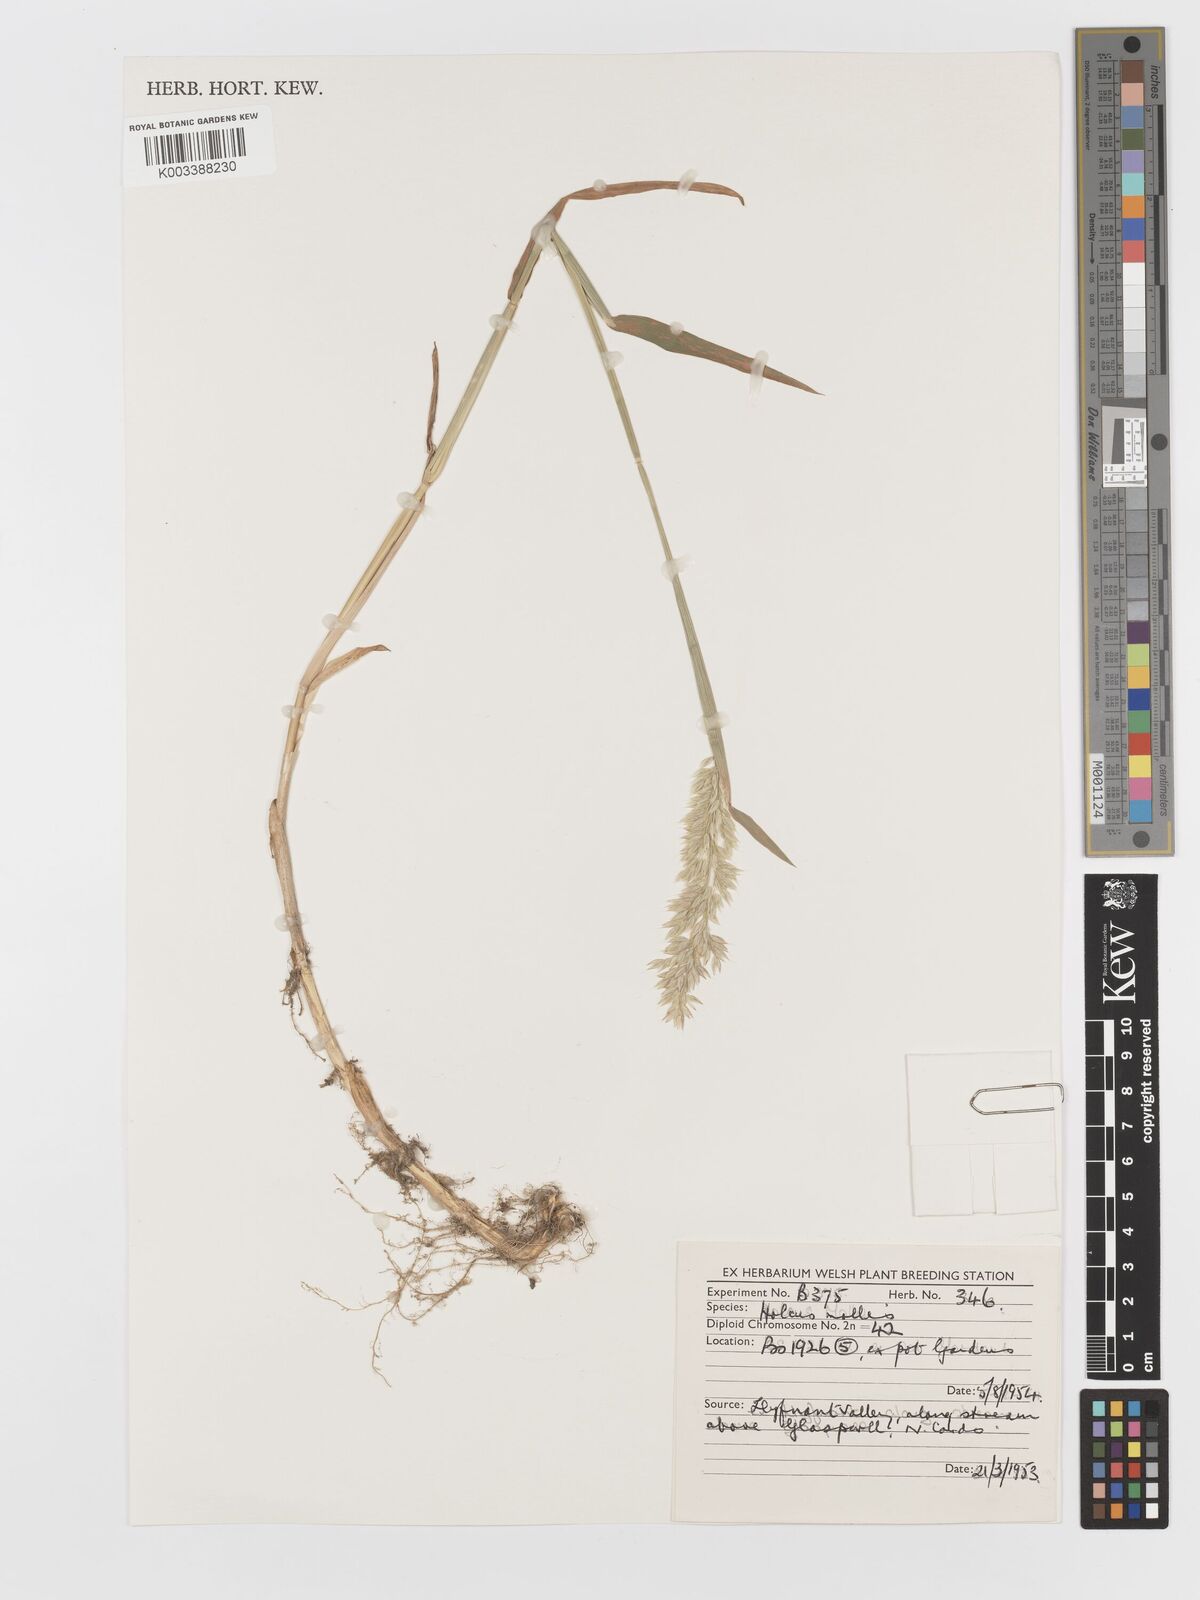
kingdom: Plantae
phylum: Tracheophyta
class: Liliopsida
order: Poales
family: Poaceae
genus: Holcus
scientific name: Holcus hierrensis
